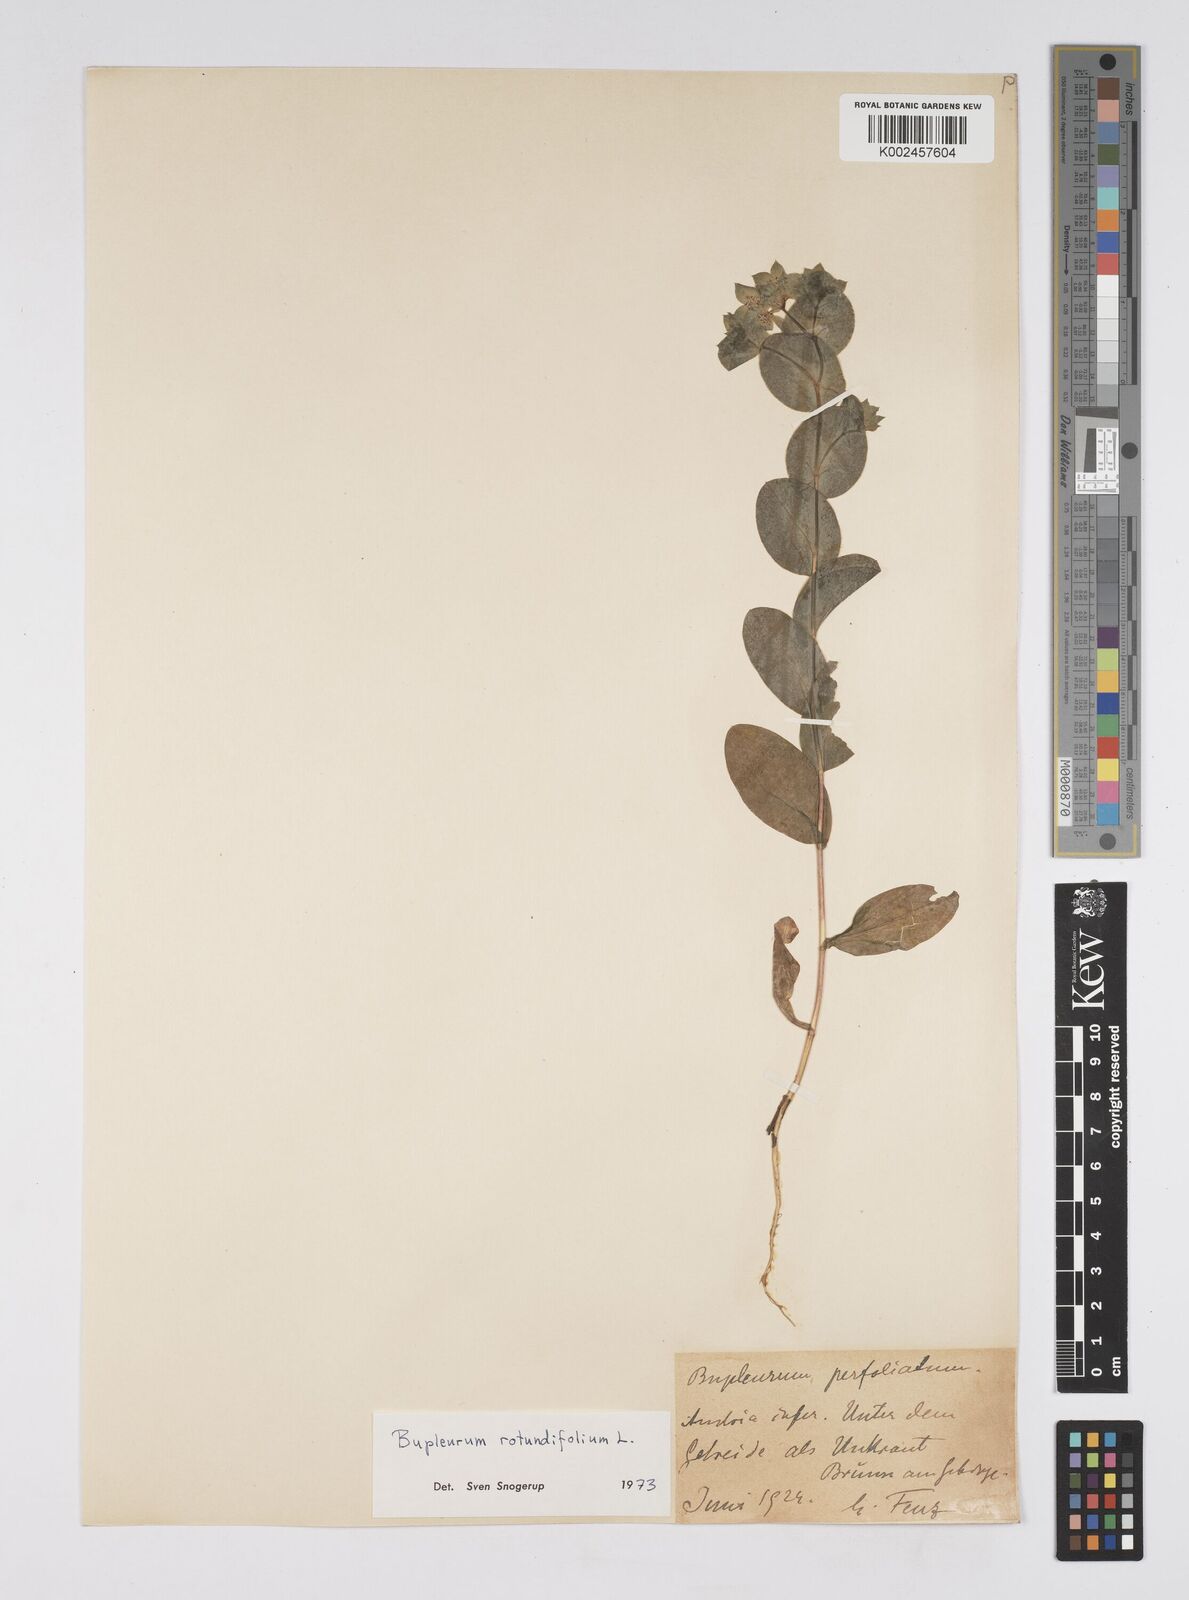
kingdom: Plantae
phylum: Tracheophyta
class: Magnoliopsida
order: Apiales
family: Apiaceae
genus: Bupleurum
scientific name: Bupleurum rotundifolium
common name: Thorow-wax
